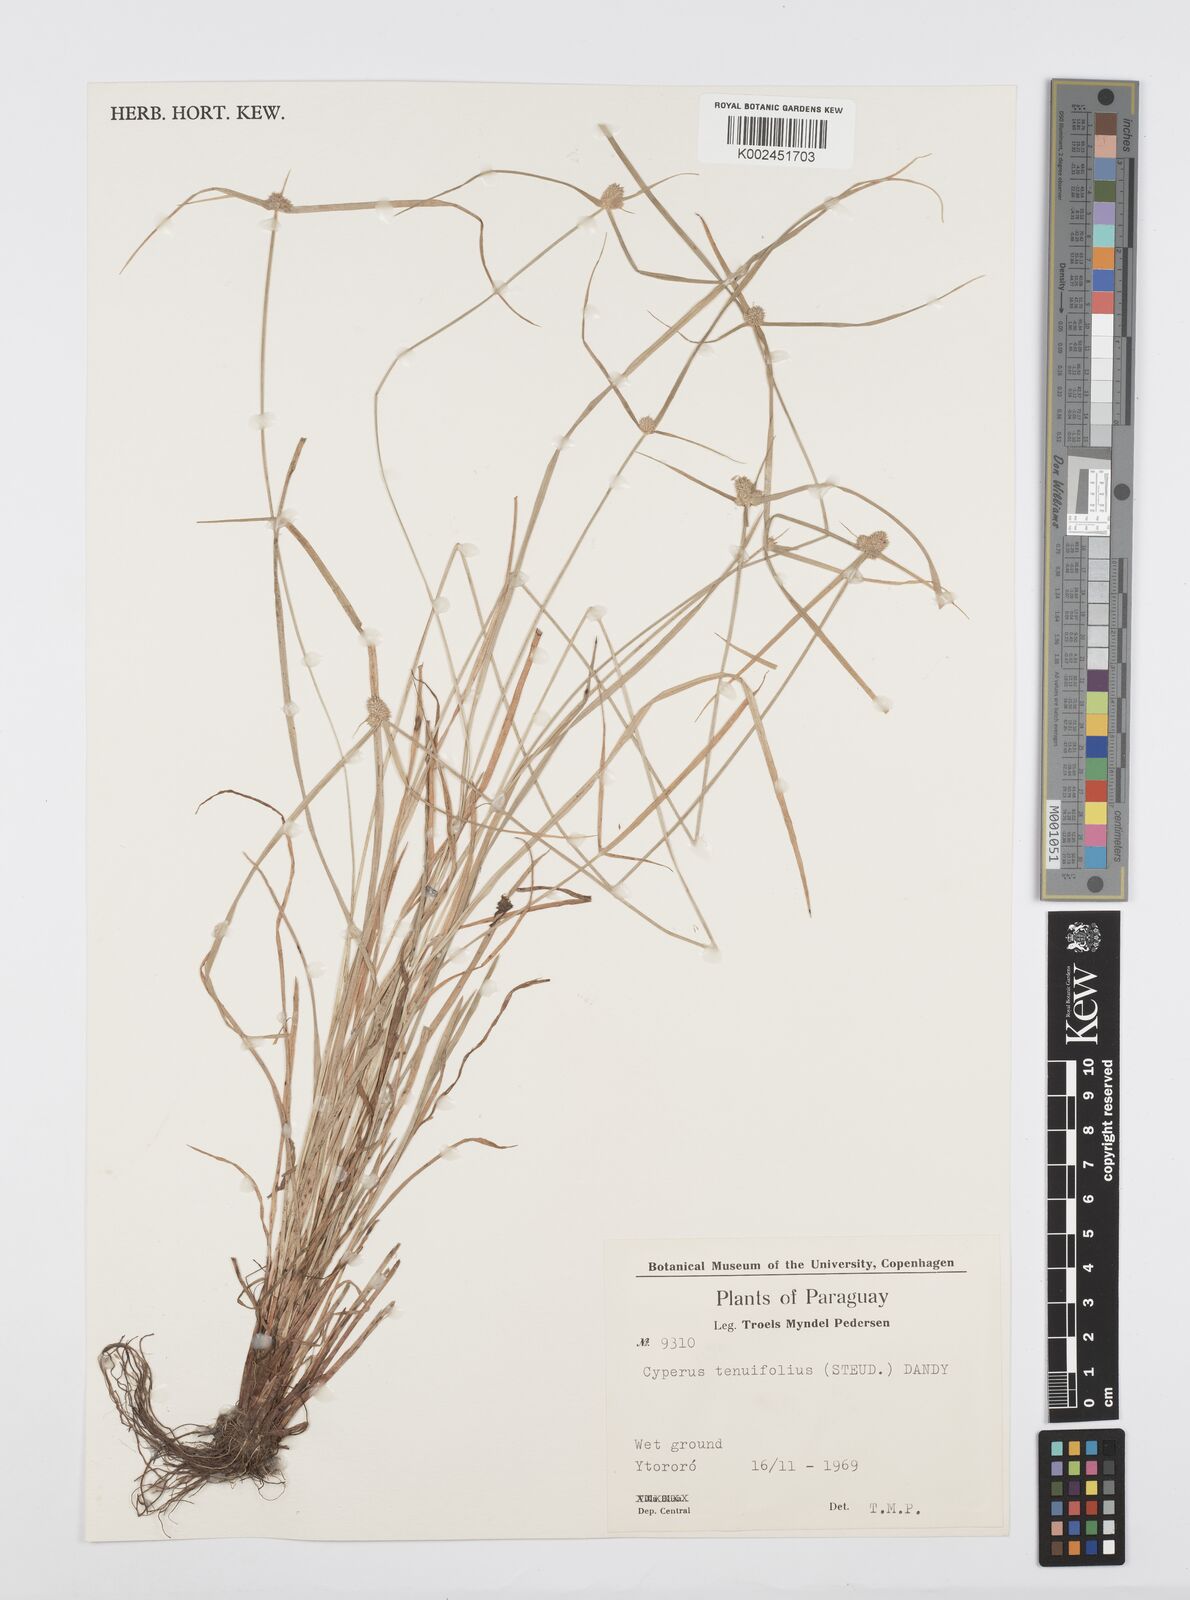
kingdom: Plantae
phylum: Tracheophyta
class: Liliopsida
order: Poales
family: Cyperaceae
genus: Cyperus
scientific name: Cyperus
